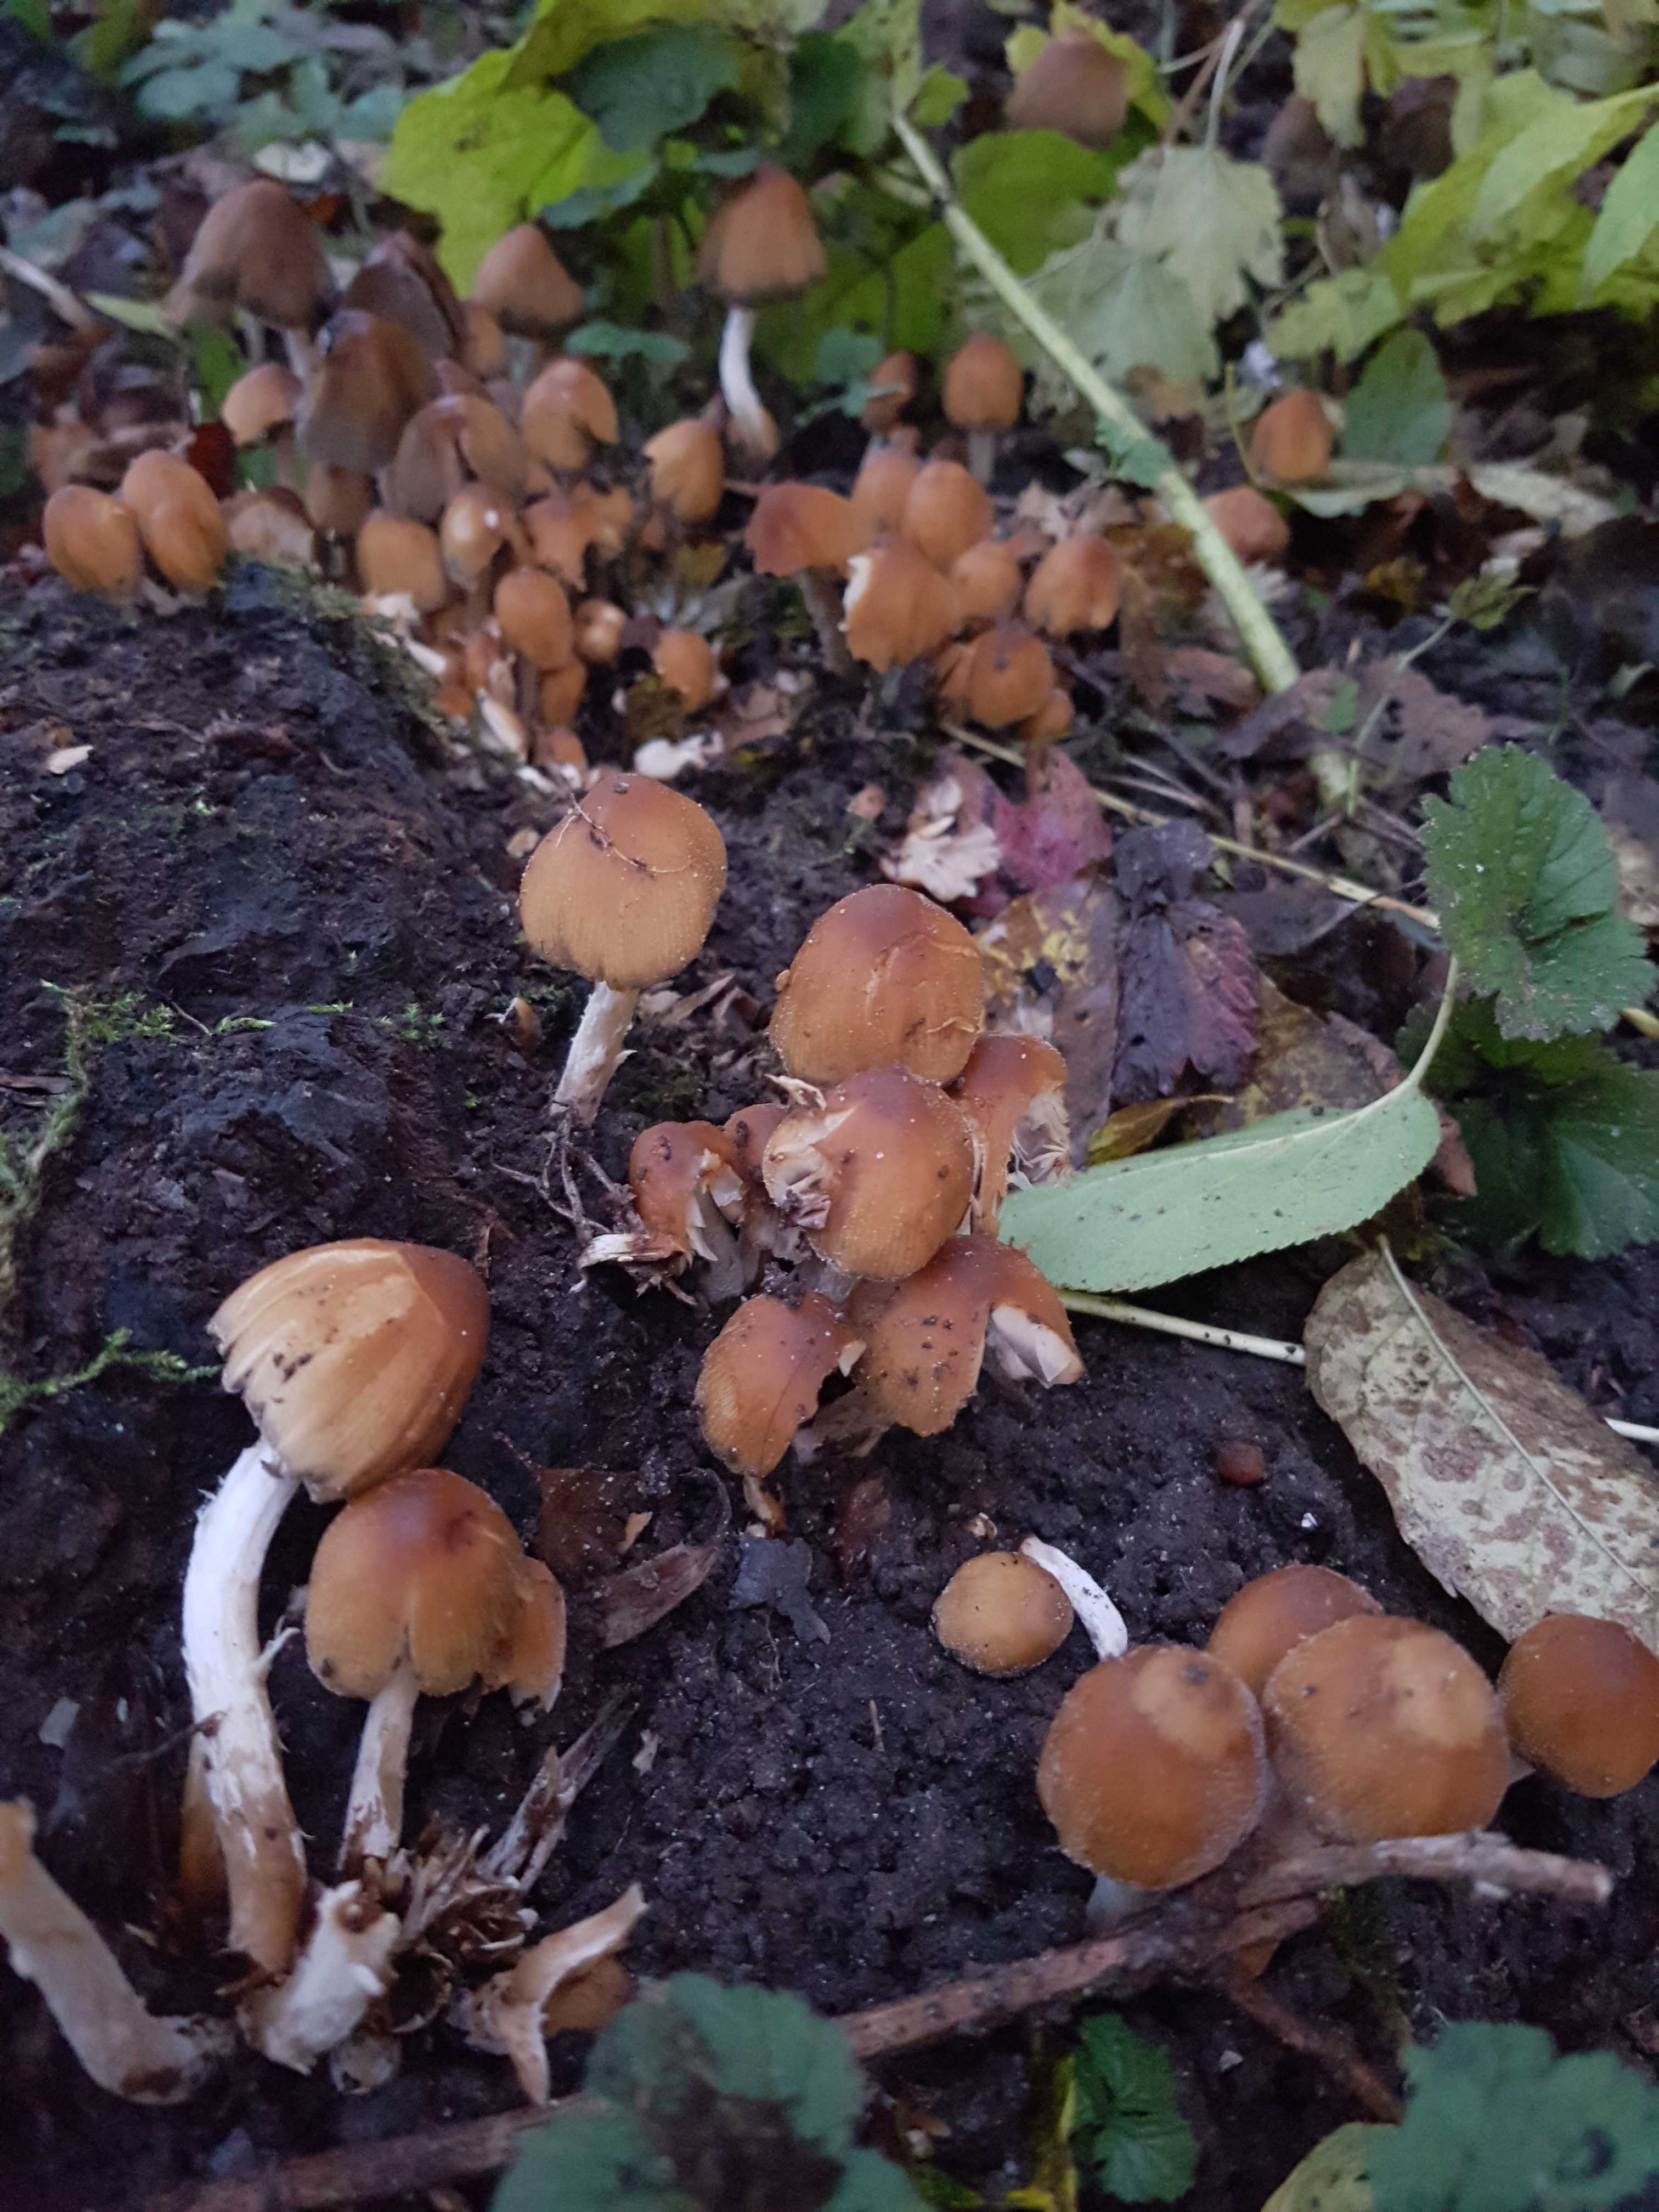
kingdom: Fungi
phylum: Basidiomycota
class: Agaricomycetes
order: Agaricales
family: Psathyrellaceae
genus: Coprinellus
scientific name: Coprinellus micaceus
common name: glimmer-blækhat
